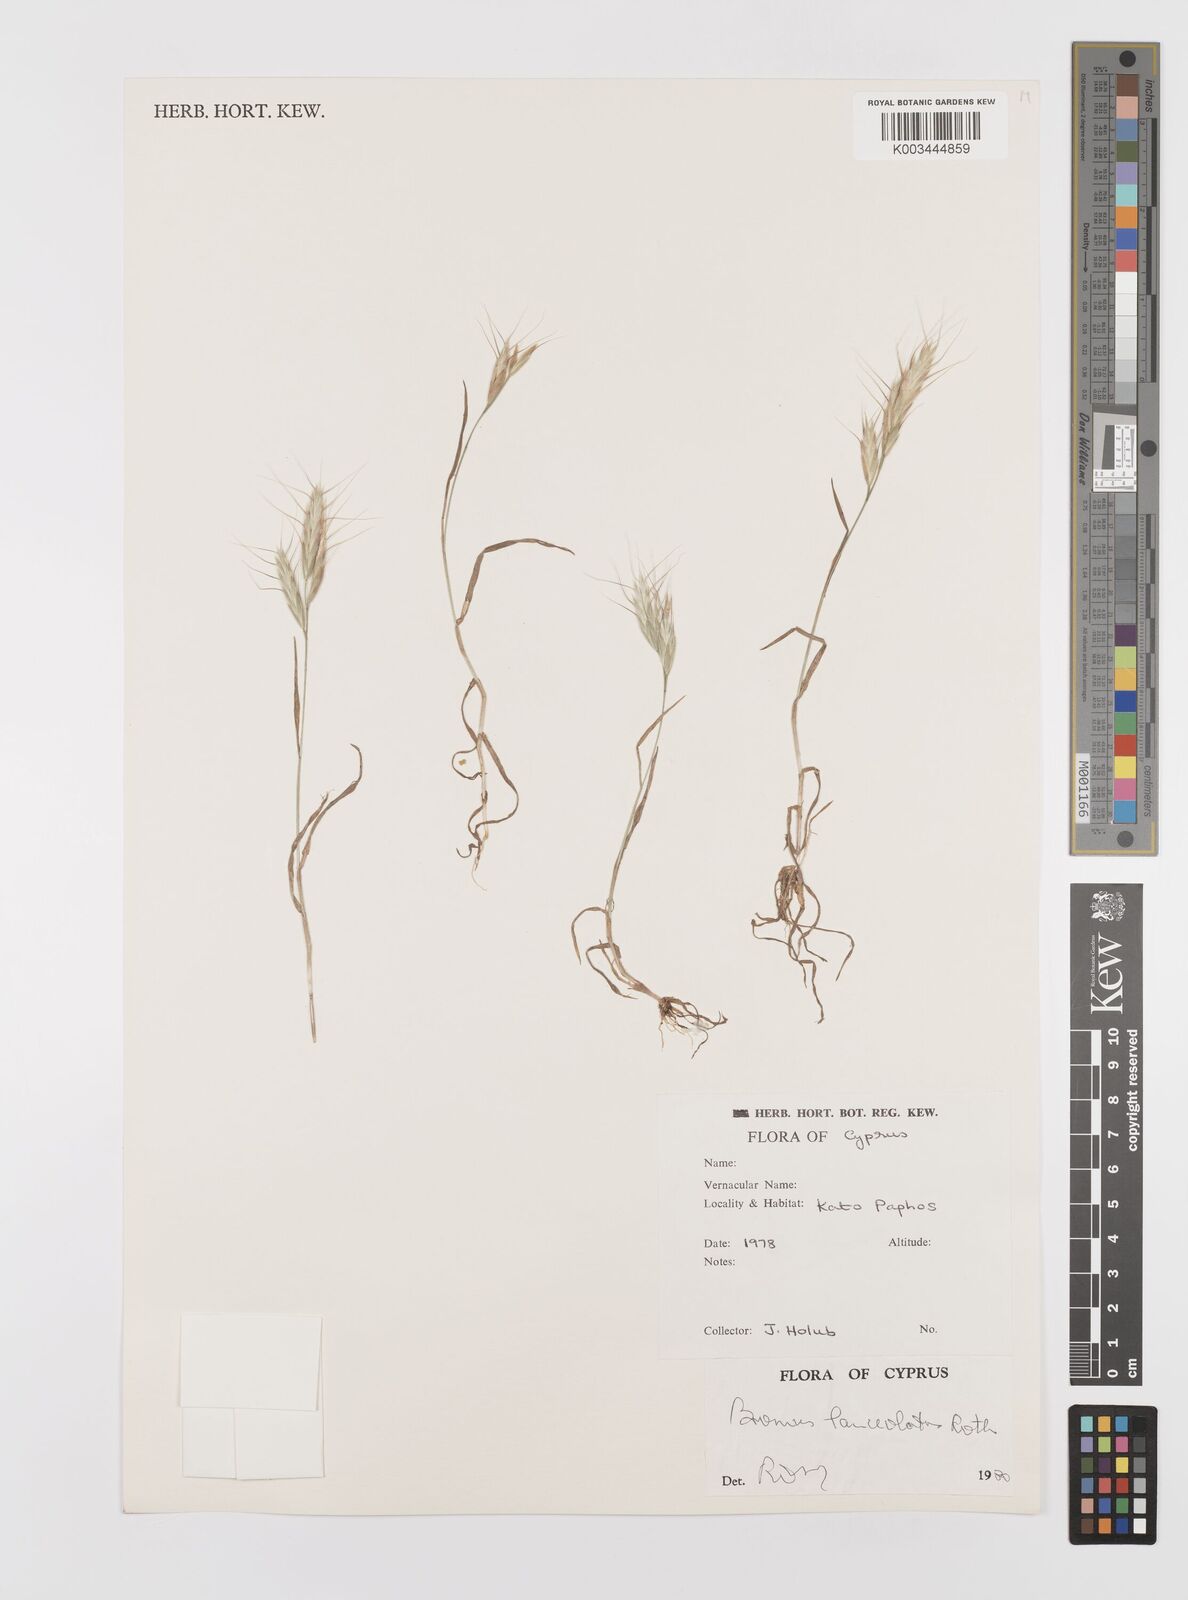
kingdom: Plantae
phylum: Tracheophyta
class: Liliopsida
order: Poales
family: Poaceae
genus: Bromus
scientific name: Bromus lanceolatus
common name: Mediterranean brome
